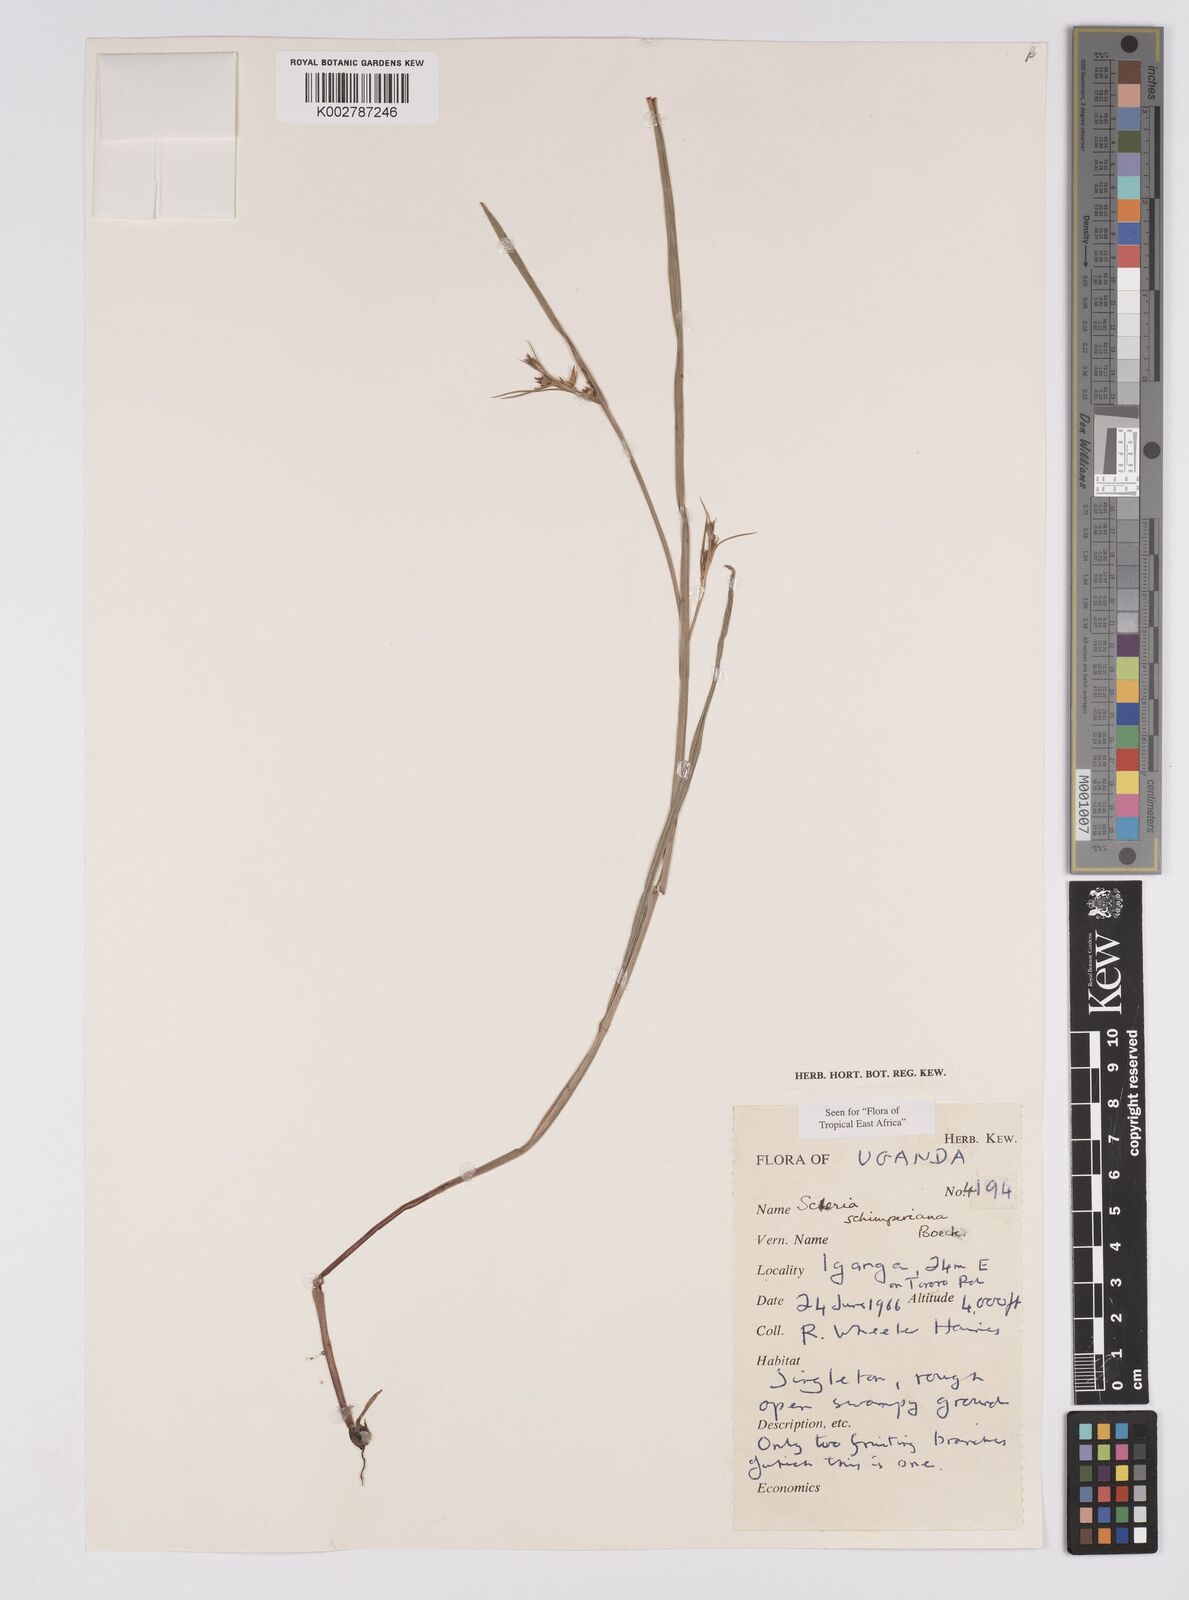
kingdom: Plantae
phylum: Tracheophyta
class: Liliopsida
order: Poales
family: Cyperaceae
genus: Scleria
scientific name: Scleria schimperiana
